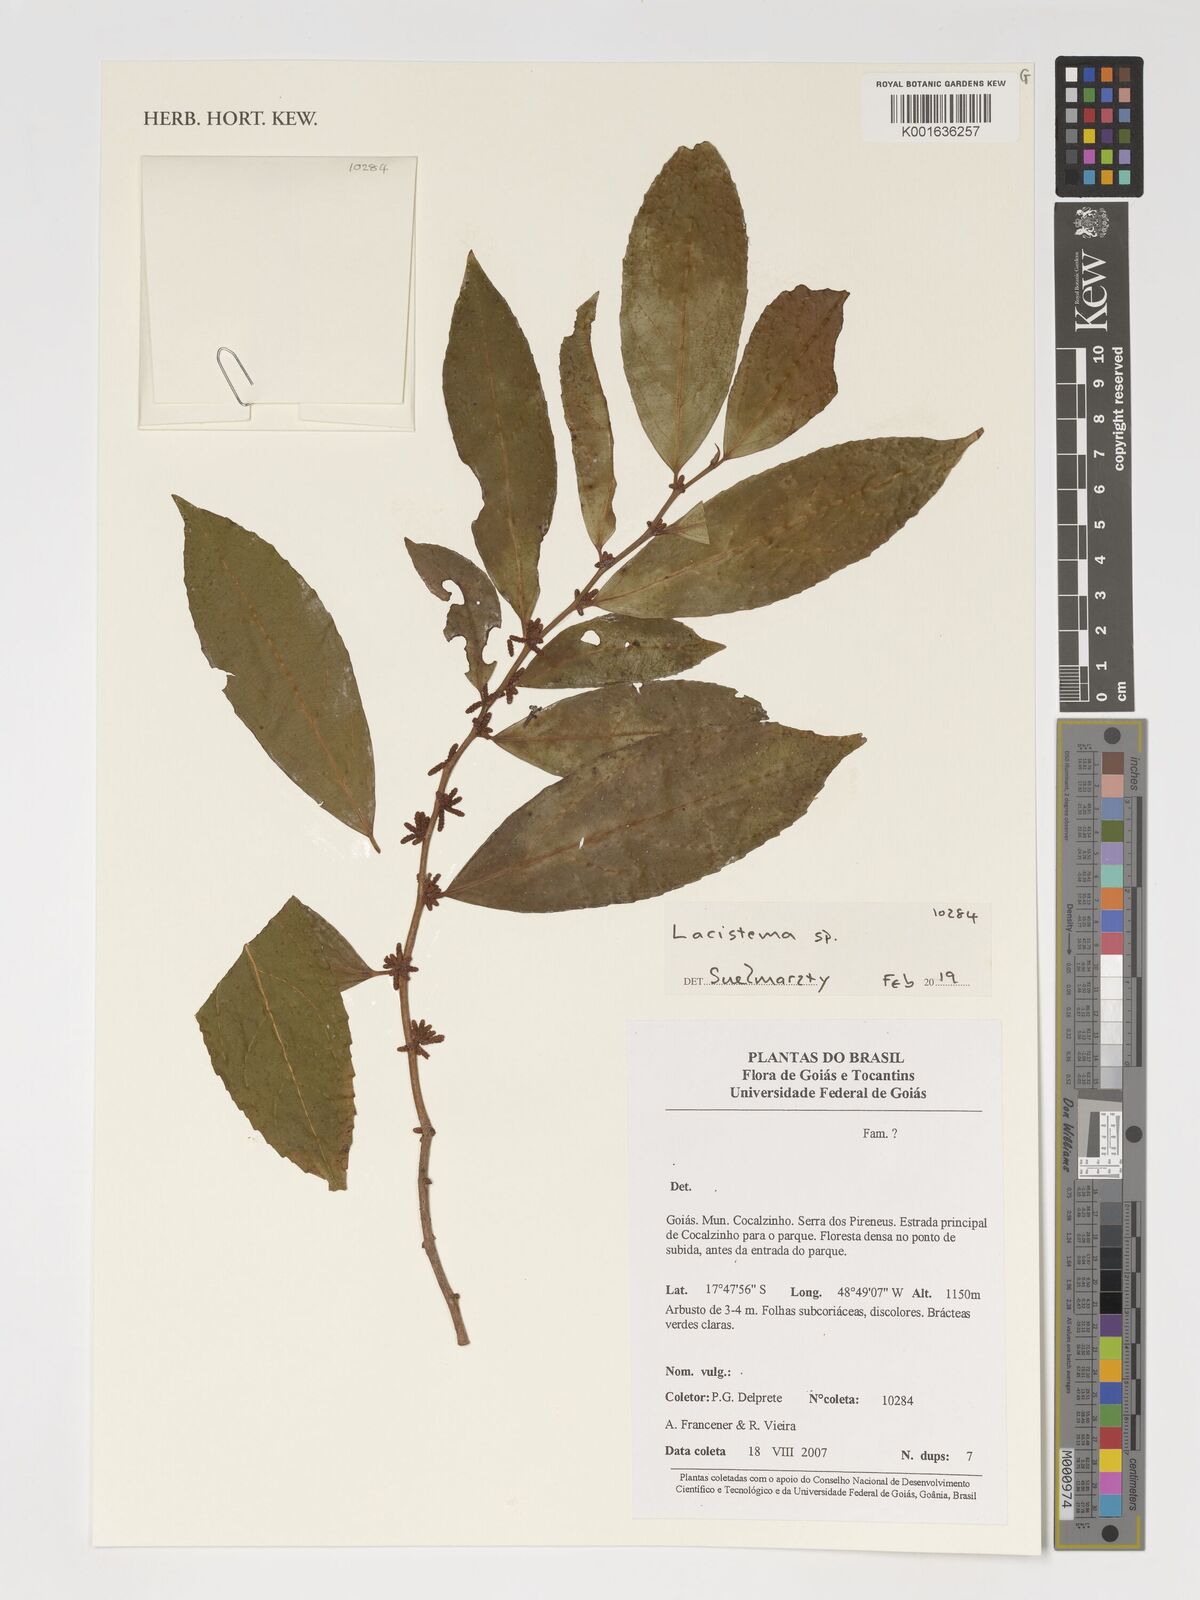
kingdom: Plantae
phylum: Tracheophyta
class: Magnoliopsida
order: Malpighiales
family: Lacistemataceae
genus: Lacistema
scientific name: Lacistema
